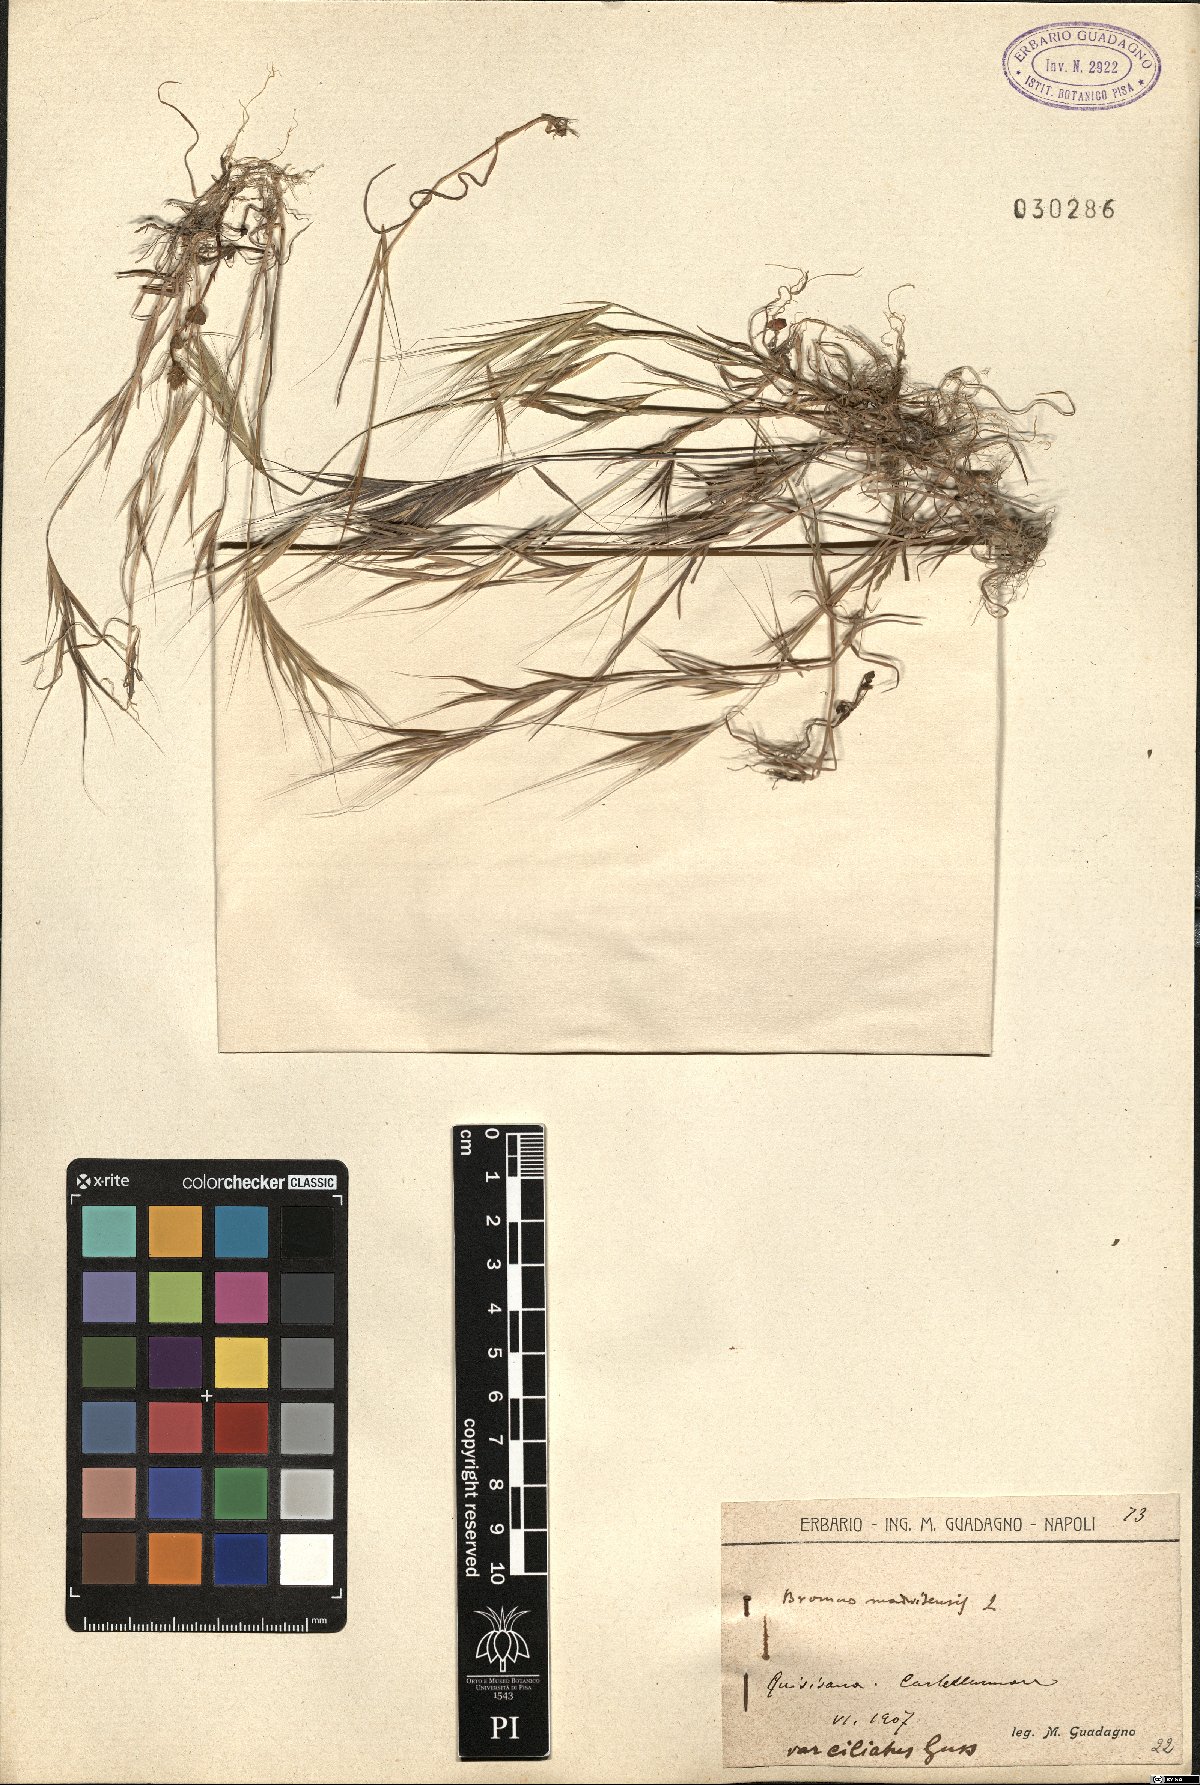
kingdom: Plantae
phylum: Tracheophyta
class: Liliopsida
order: Poales
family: Poaceae
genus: Bromus
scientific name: Bromus madritensis
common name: Compact brome
